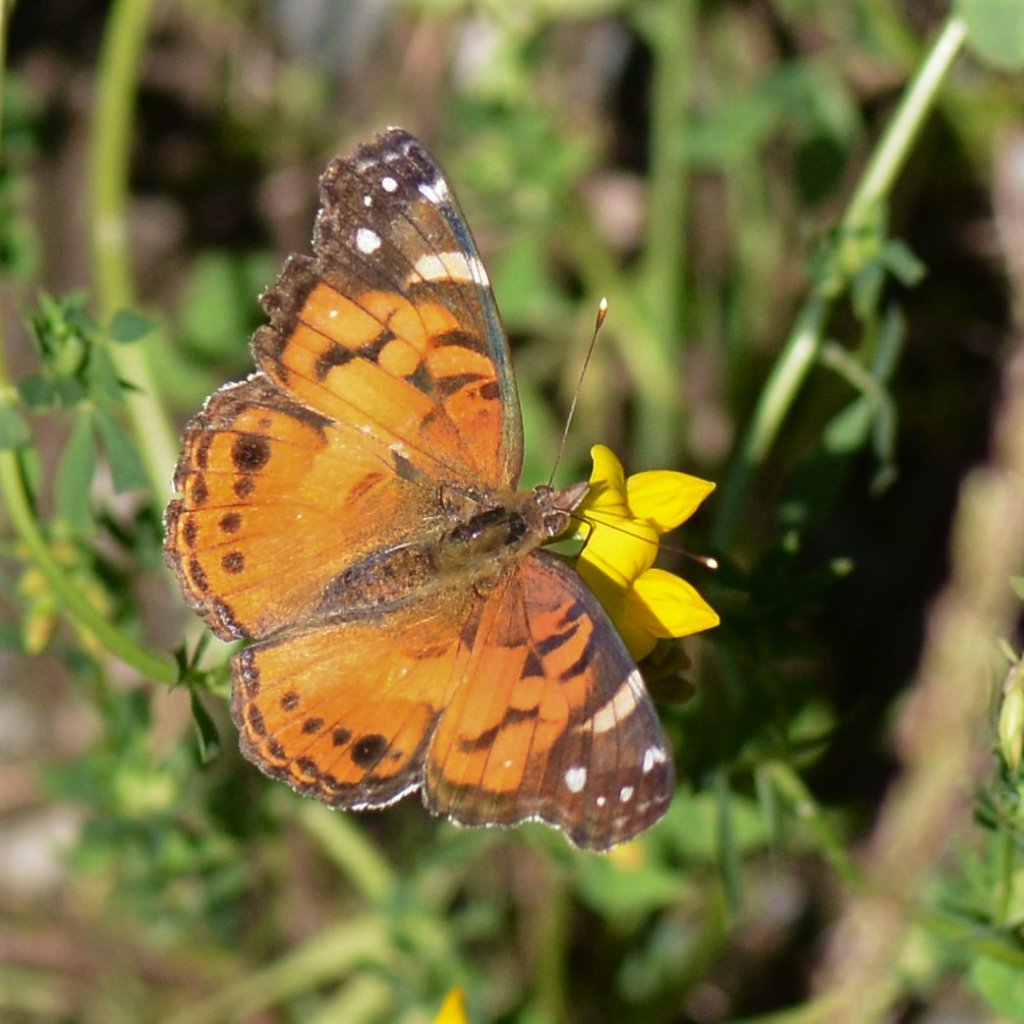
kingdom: Animalia
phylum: Arthropoda
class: Insecta
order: Lepidoptera
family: Nymphalidae
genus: Vanessa
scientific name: Vanessa virginiensis
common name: American Lady
